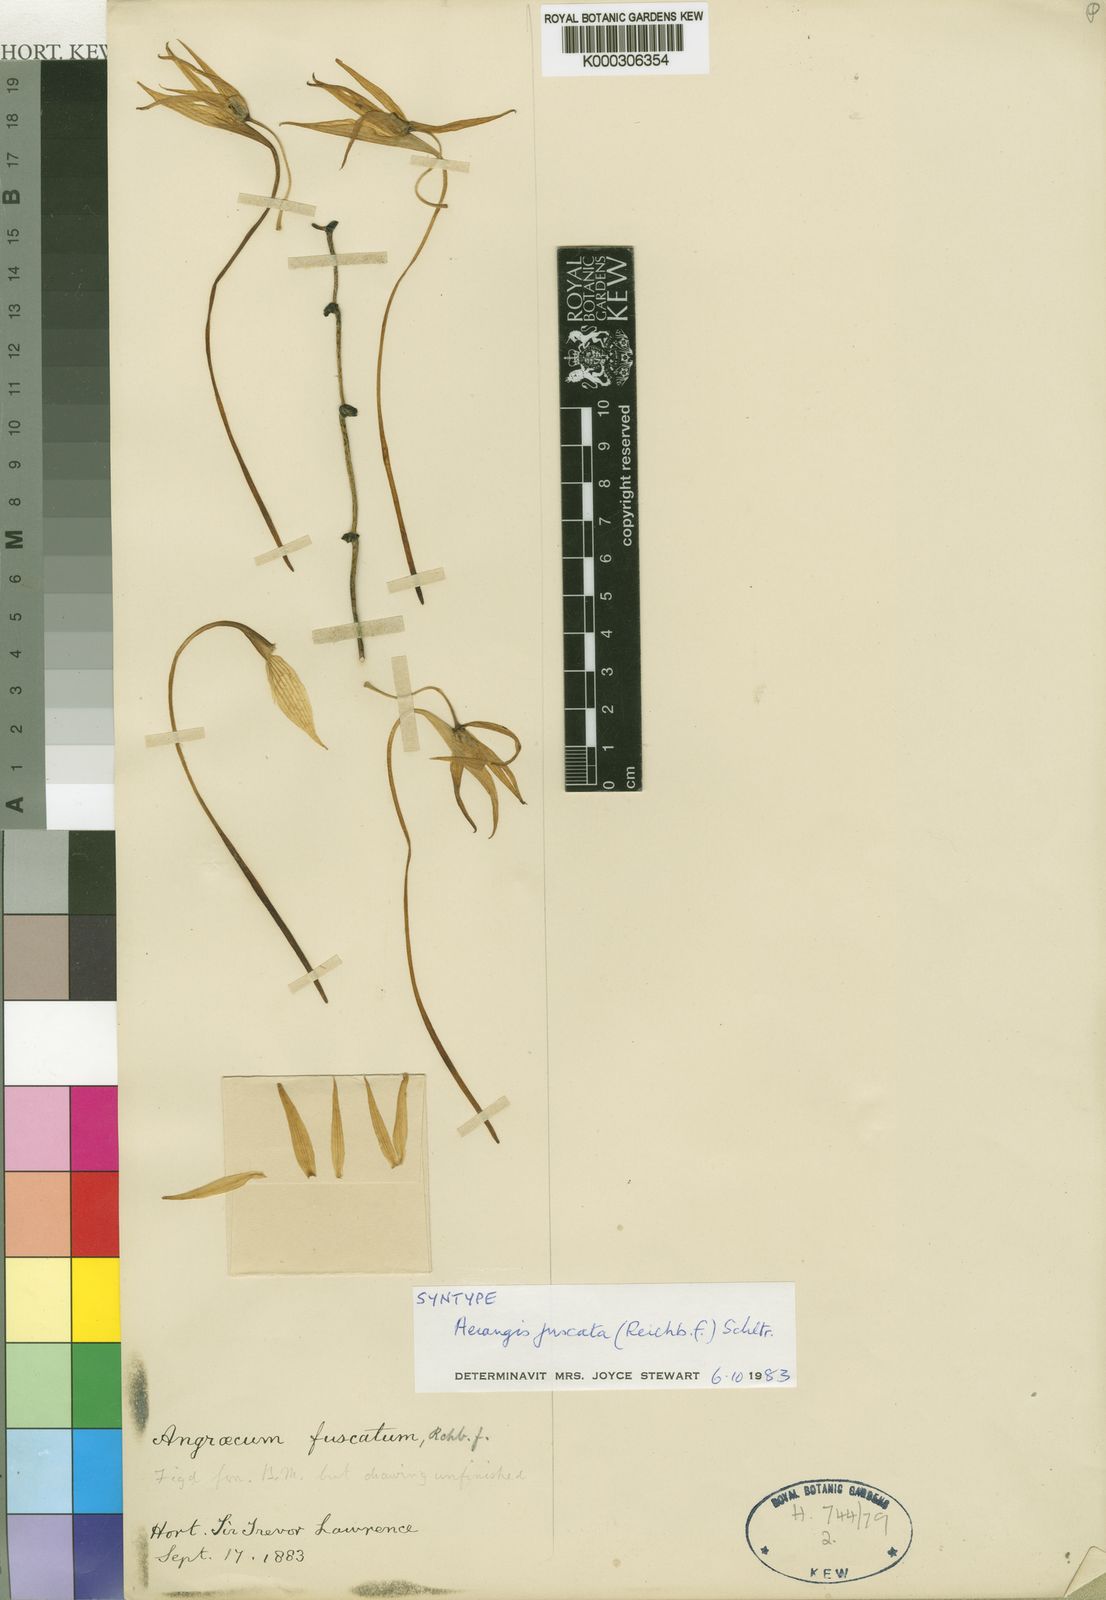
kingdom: Plantae
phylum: Tracheophyta
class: Liliopsida
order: Asparagales
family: Orchidaceae
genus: Aerangis
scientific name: Aerangis fuscata
